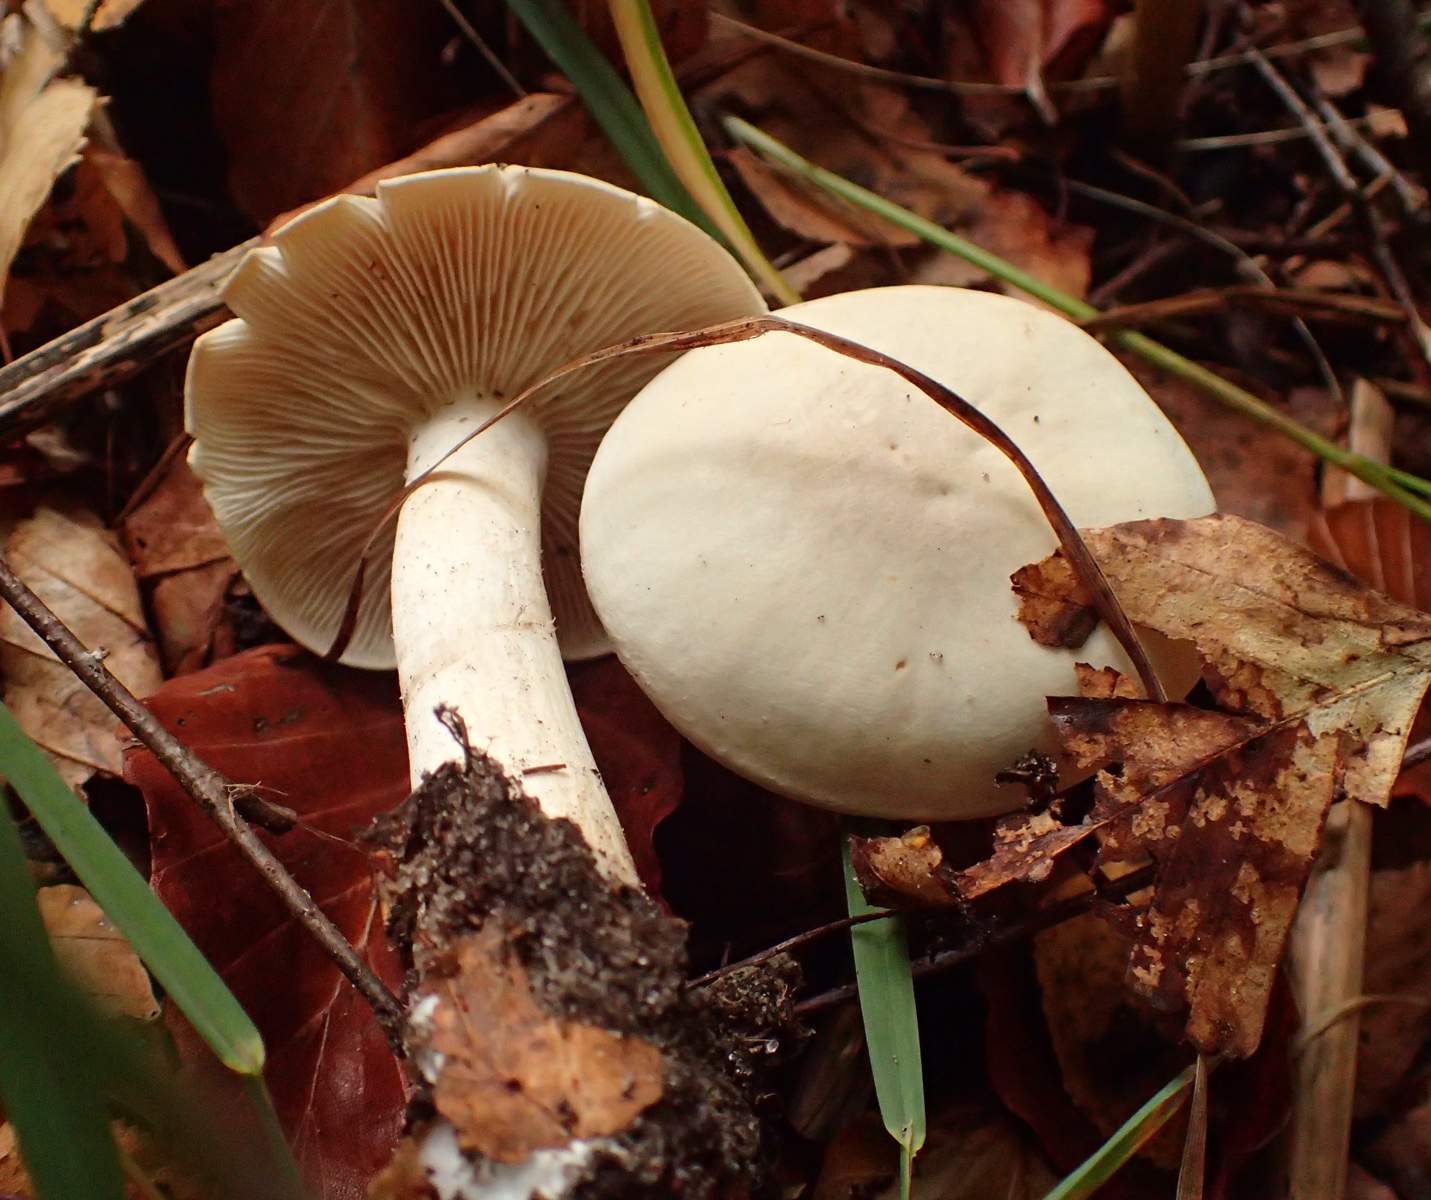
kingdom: Fungi
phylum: Basidiomycota
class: Agaricomycetes
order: Agaricales
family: Tricholomataceae
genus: Tricholoma
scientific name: Tricholoma lascivum
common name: stinkende ridderhat
